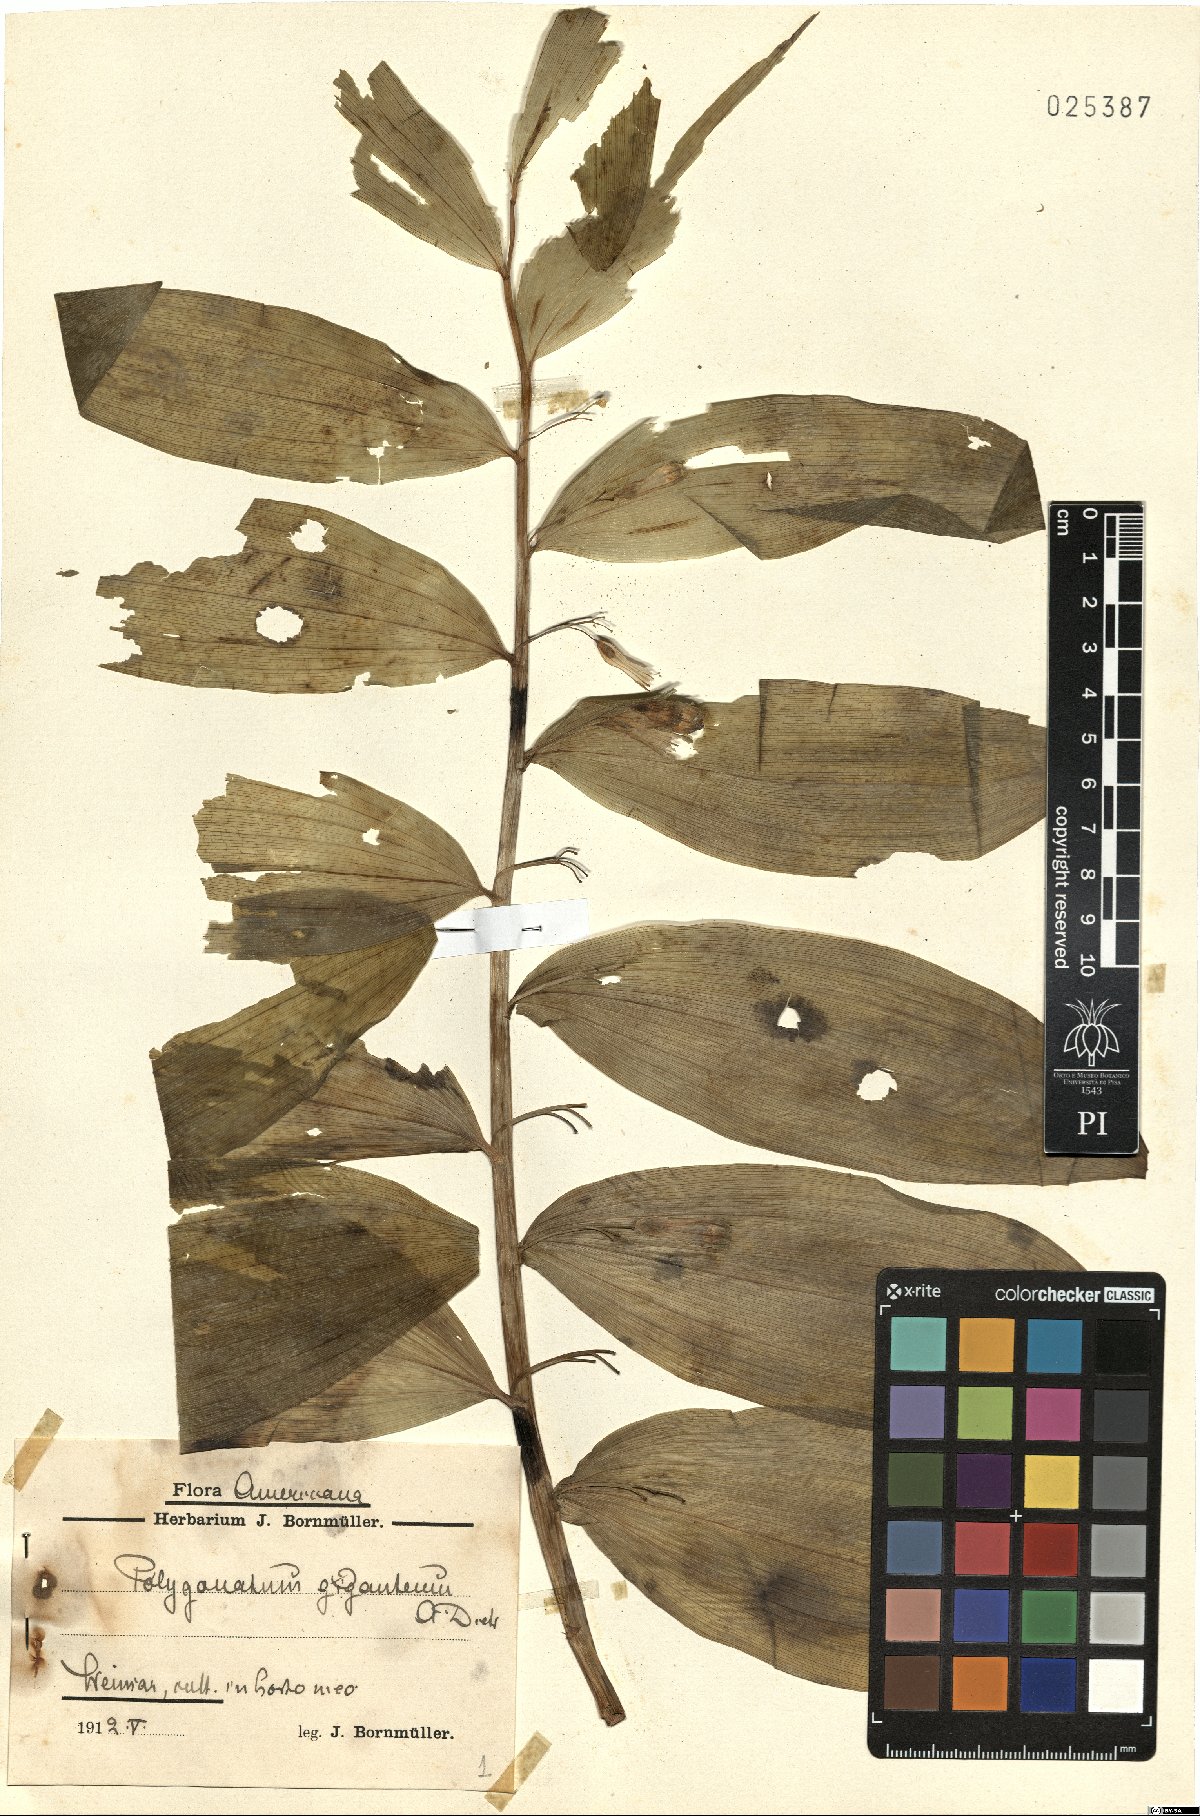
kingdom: Plantae
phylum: Tracheophyta
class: Liliopsida
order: Asparagales
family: Asparagaceae
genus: Polygonatum
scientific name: Polygonatum biflorum
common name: American solomon's-seal
